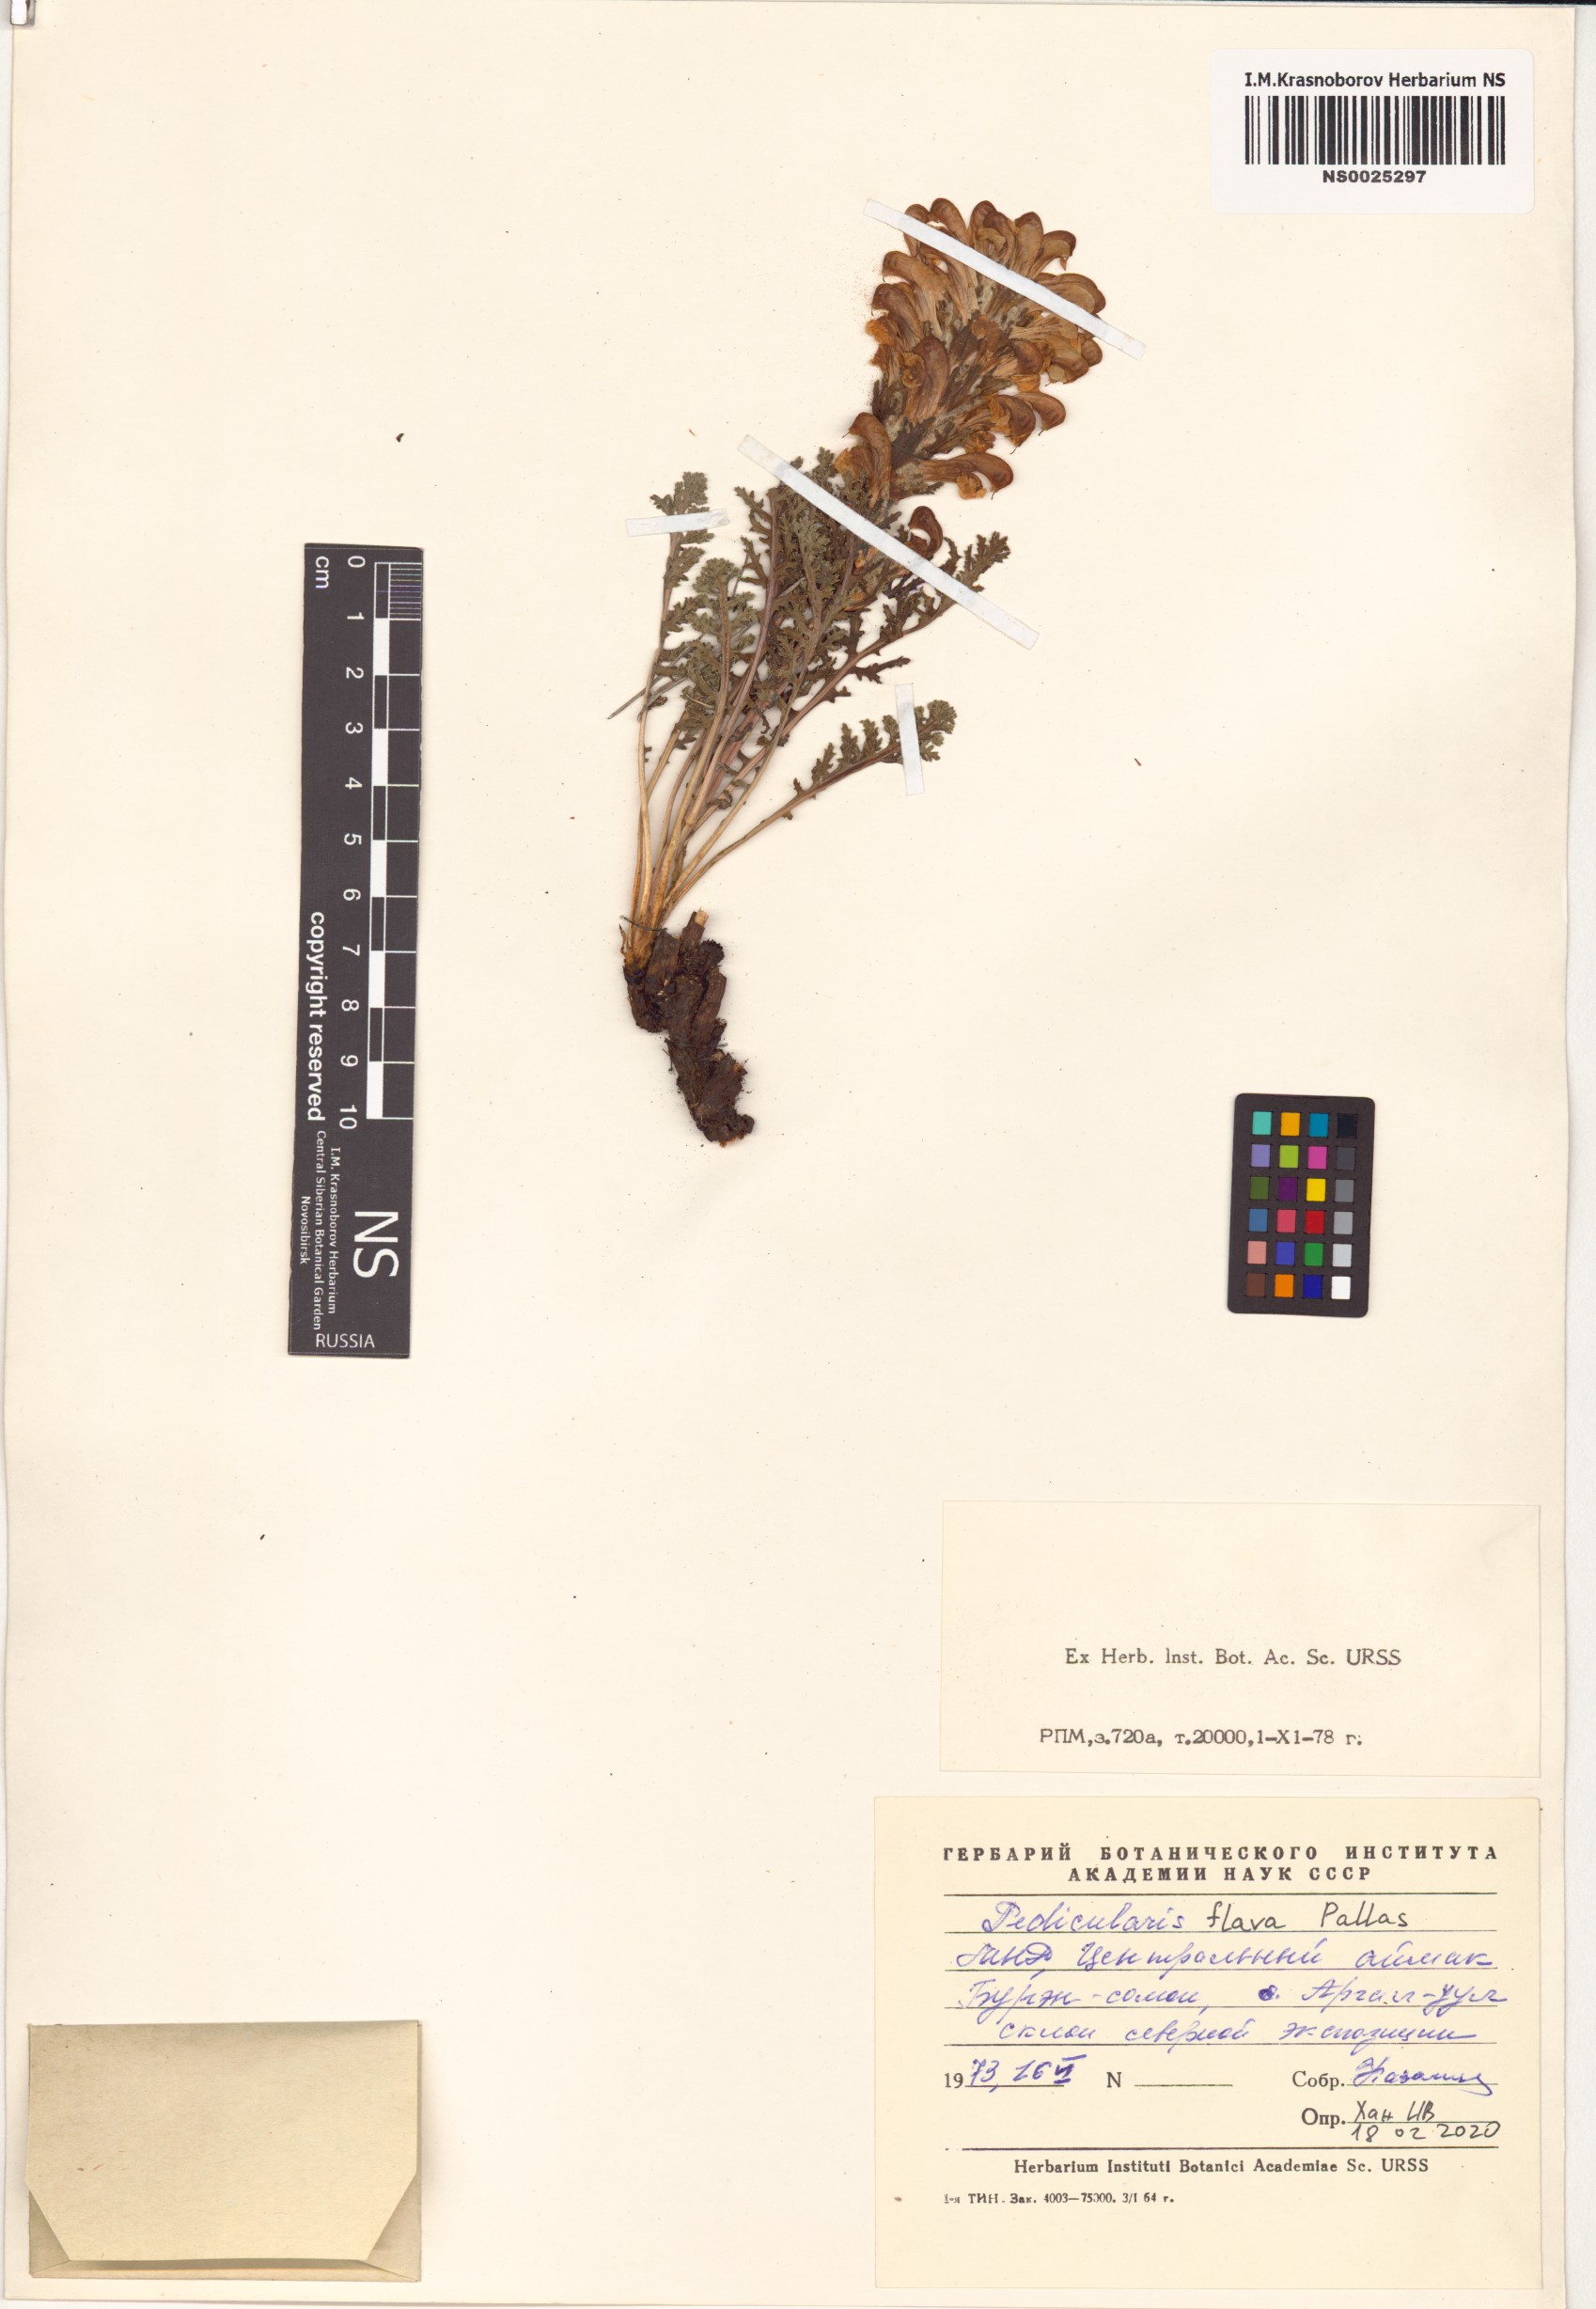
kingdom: Plantae
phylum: Tracheophyta
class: Magnoliopsida
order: Lamiales
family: Orobanchaceae
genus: Pedicularis
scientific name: Pedicularis flava
